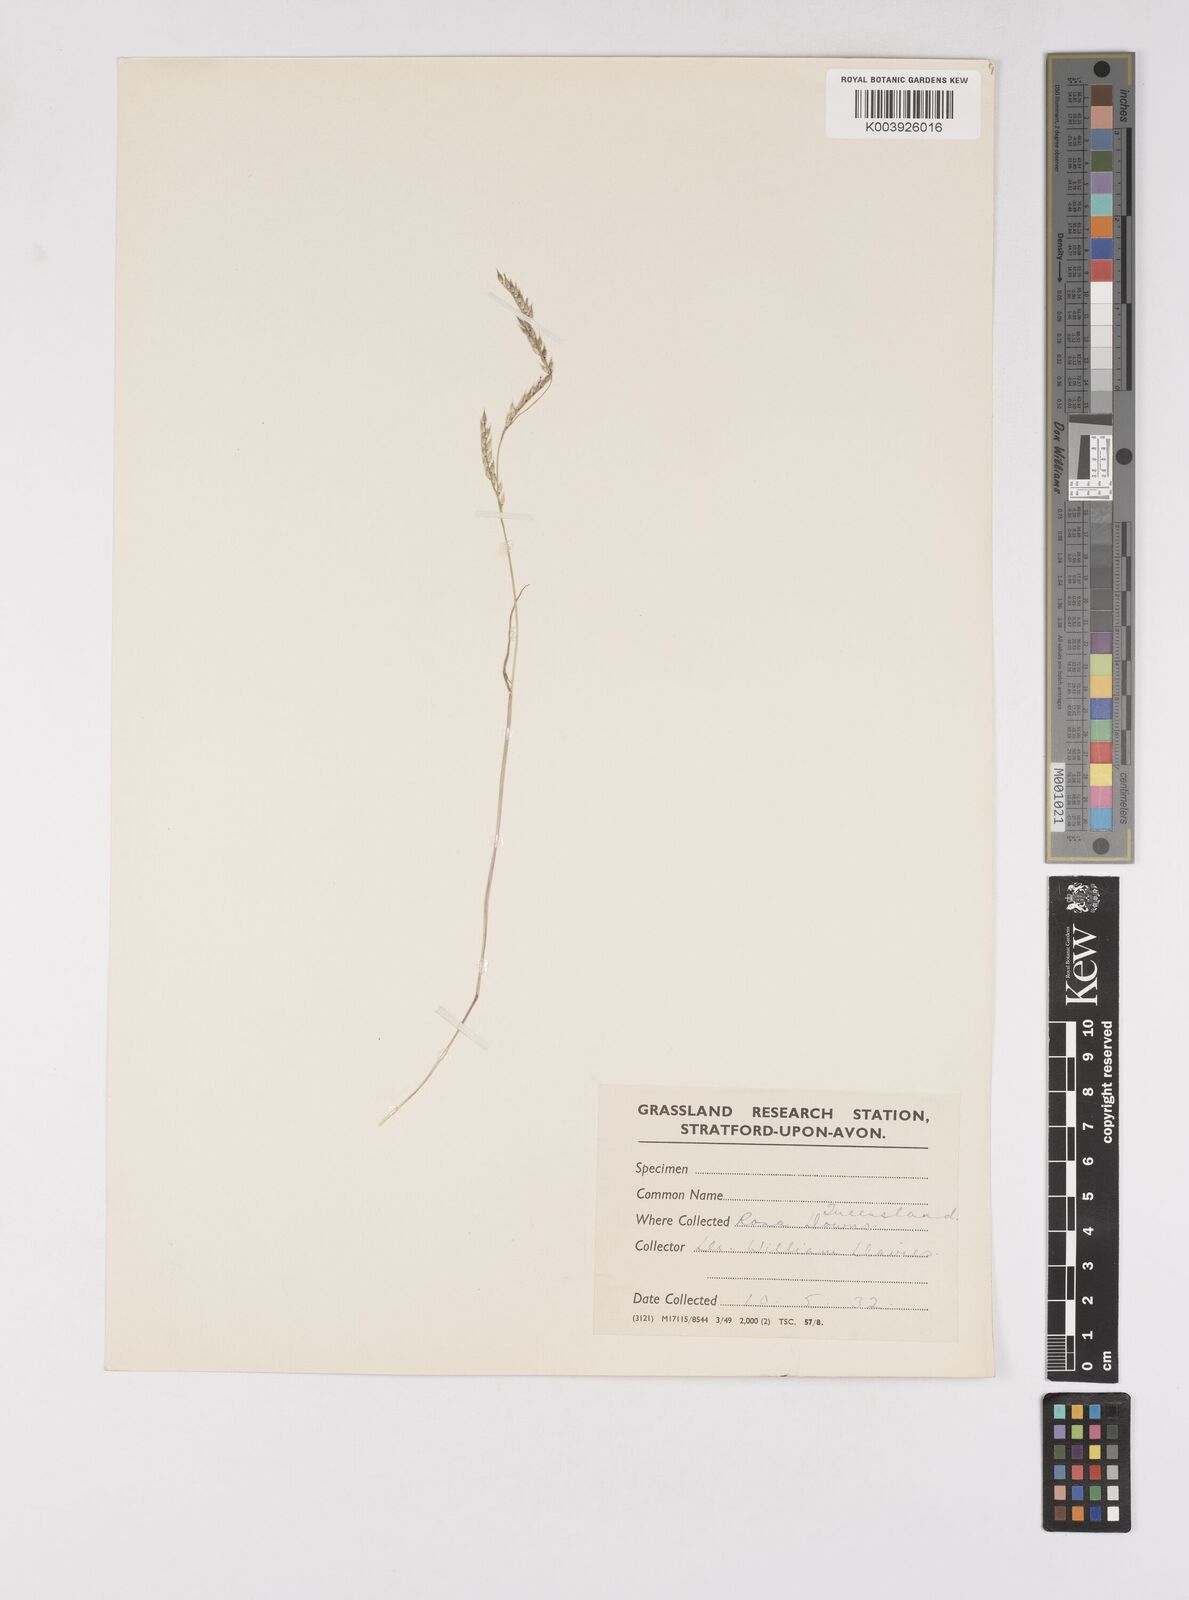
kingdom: Plantae
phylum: Tracheophyta
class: Liliopsida
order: Poales
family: Poaceae
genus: Eriochloa
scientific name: Eriochloa
